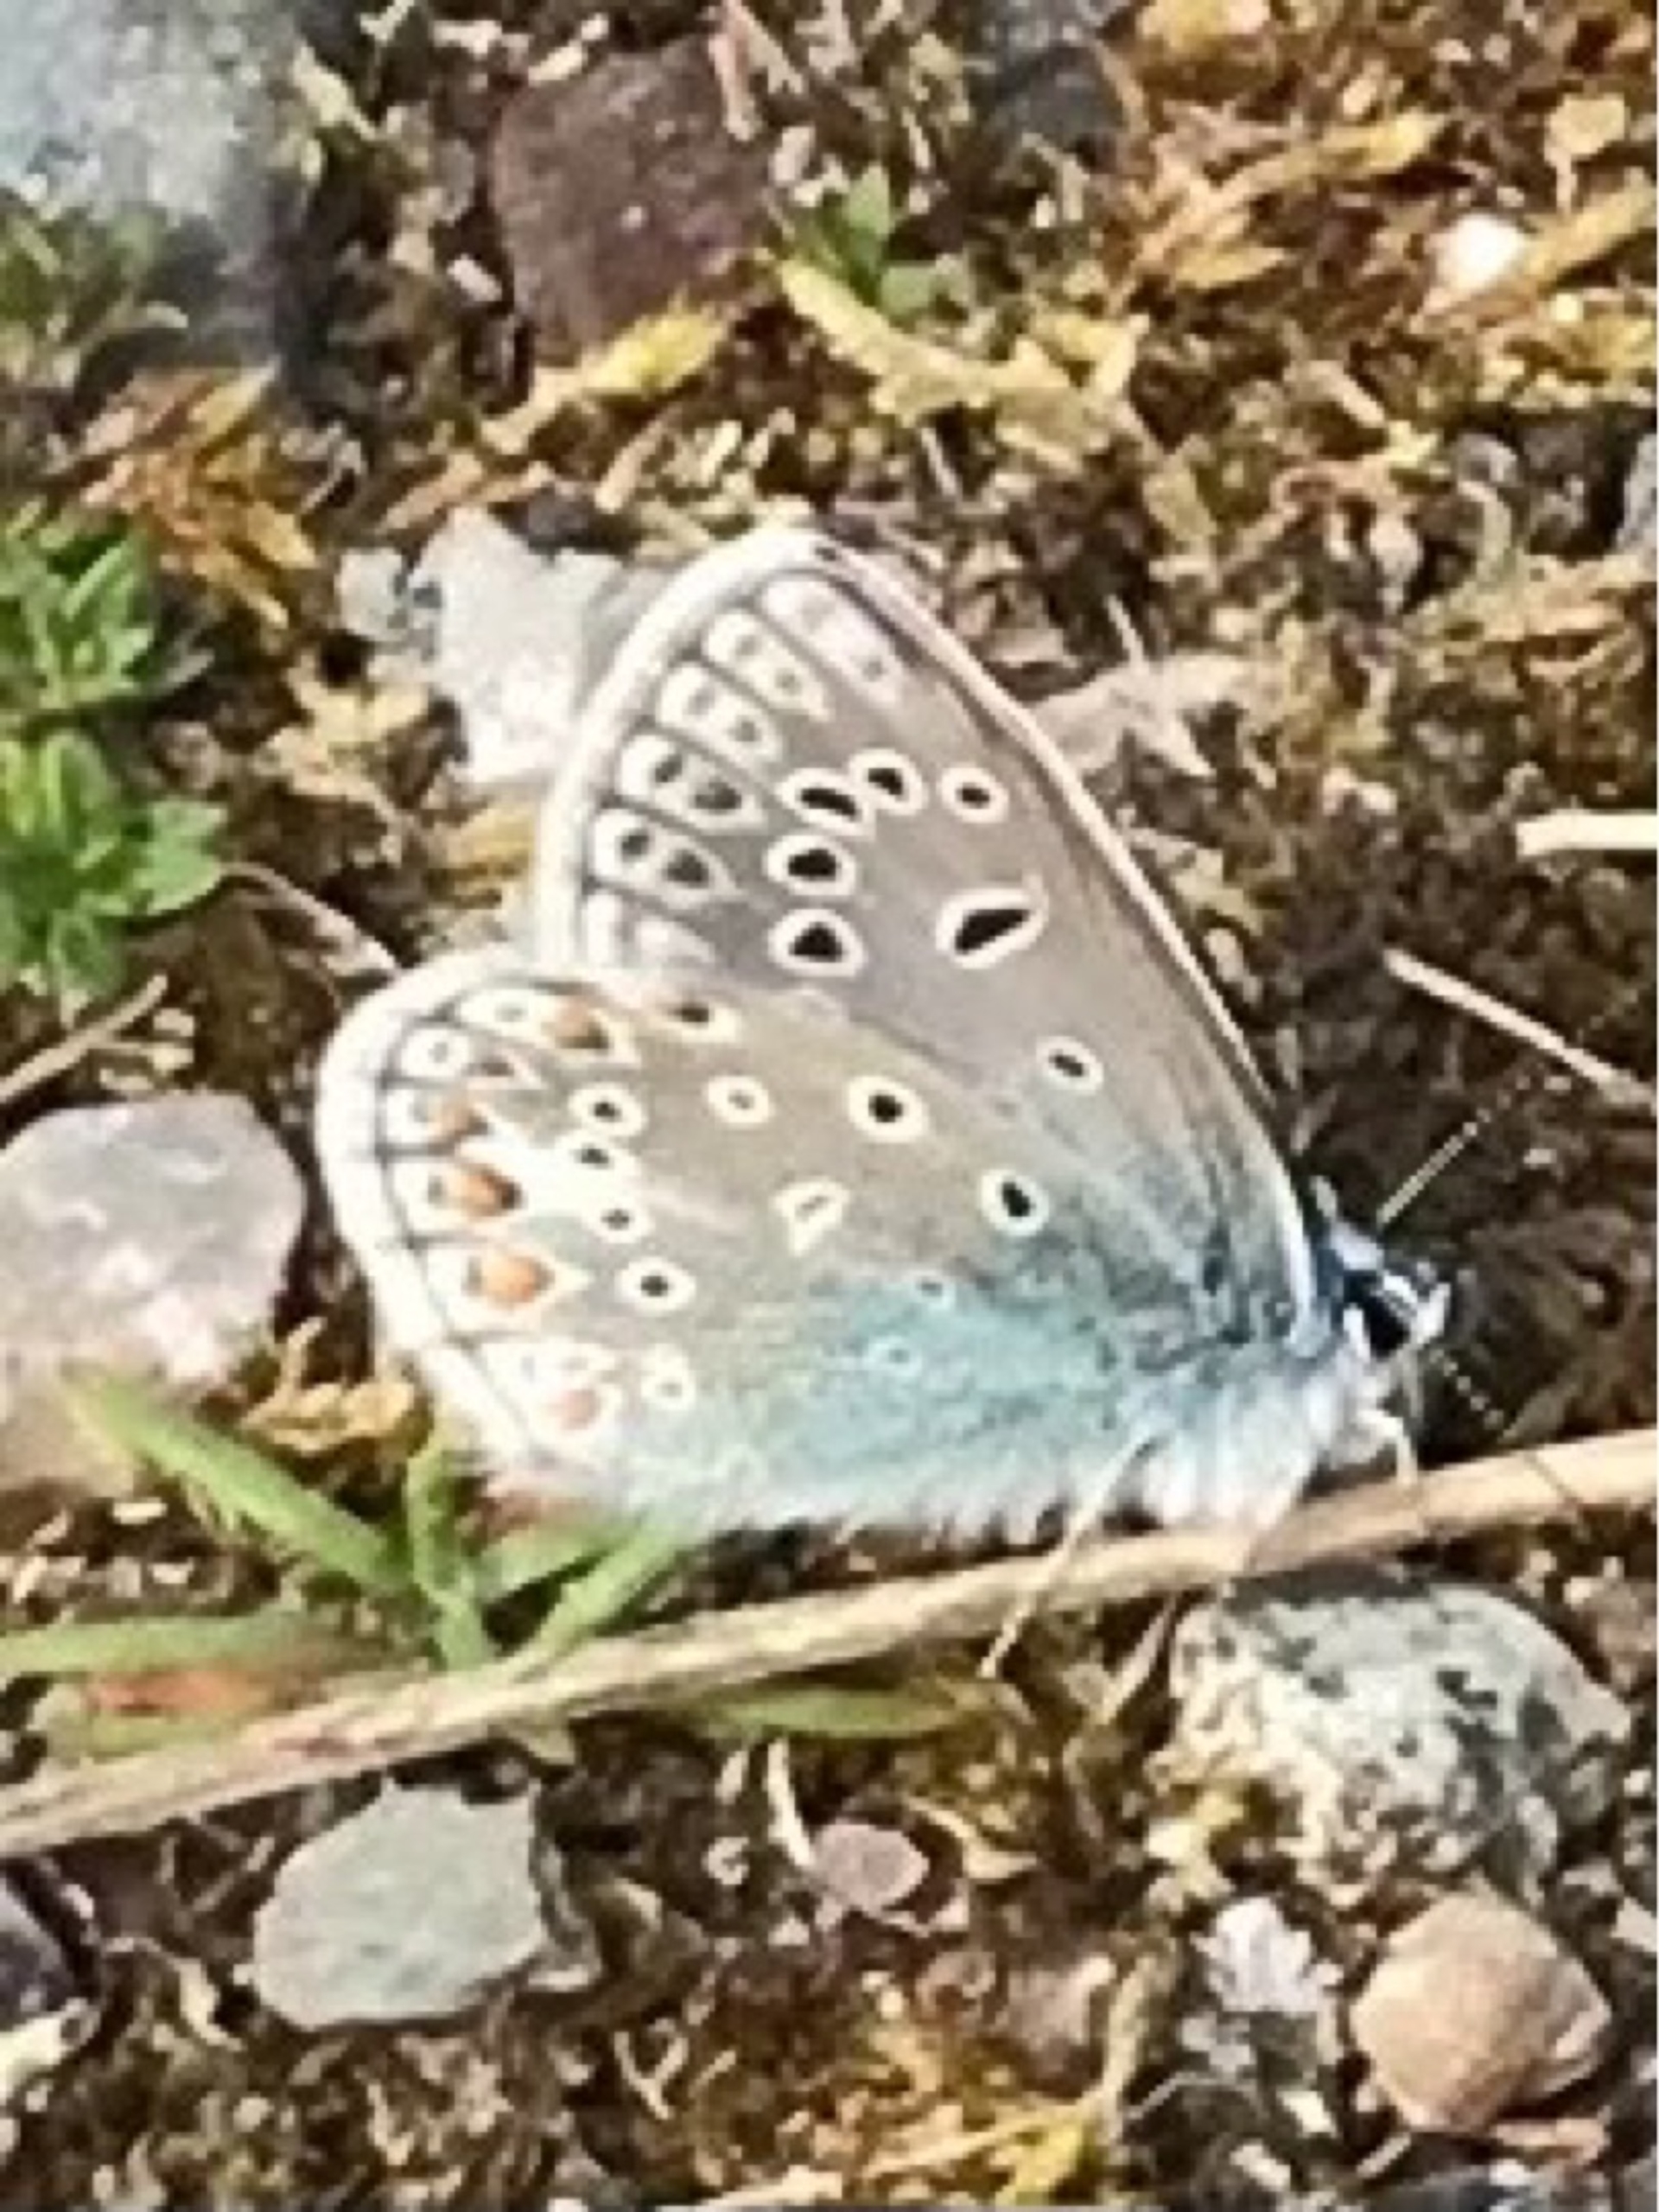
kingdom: Animalia
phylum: Arthropoda
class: Insecta
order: Lepidoptera
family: Lycaenidae
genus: Polyommatus
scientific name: Polyommatus icarus
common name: Almindelig blåfugl
